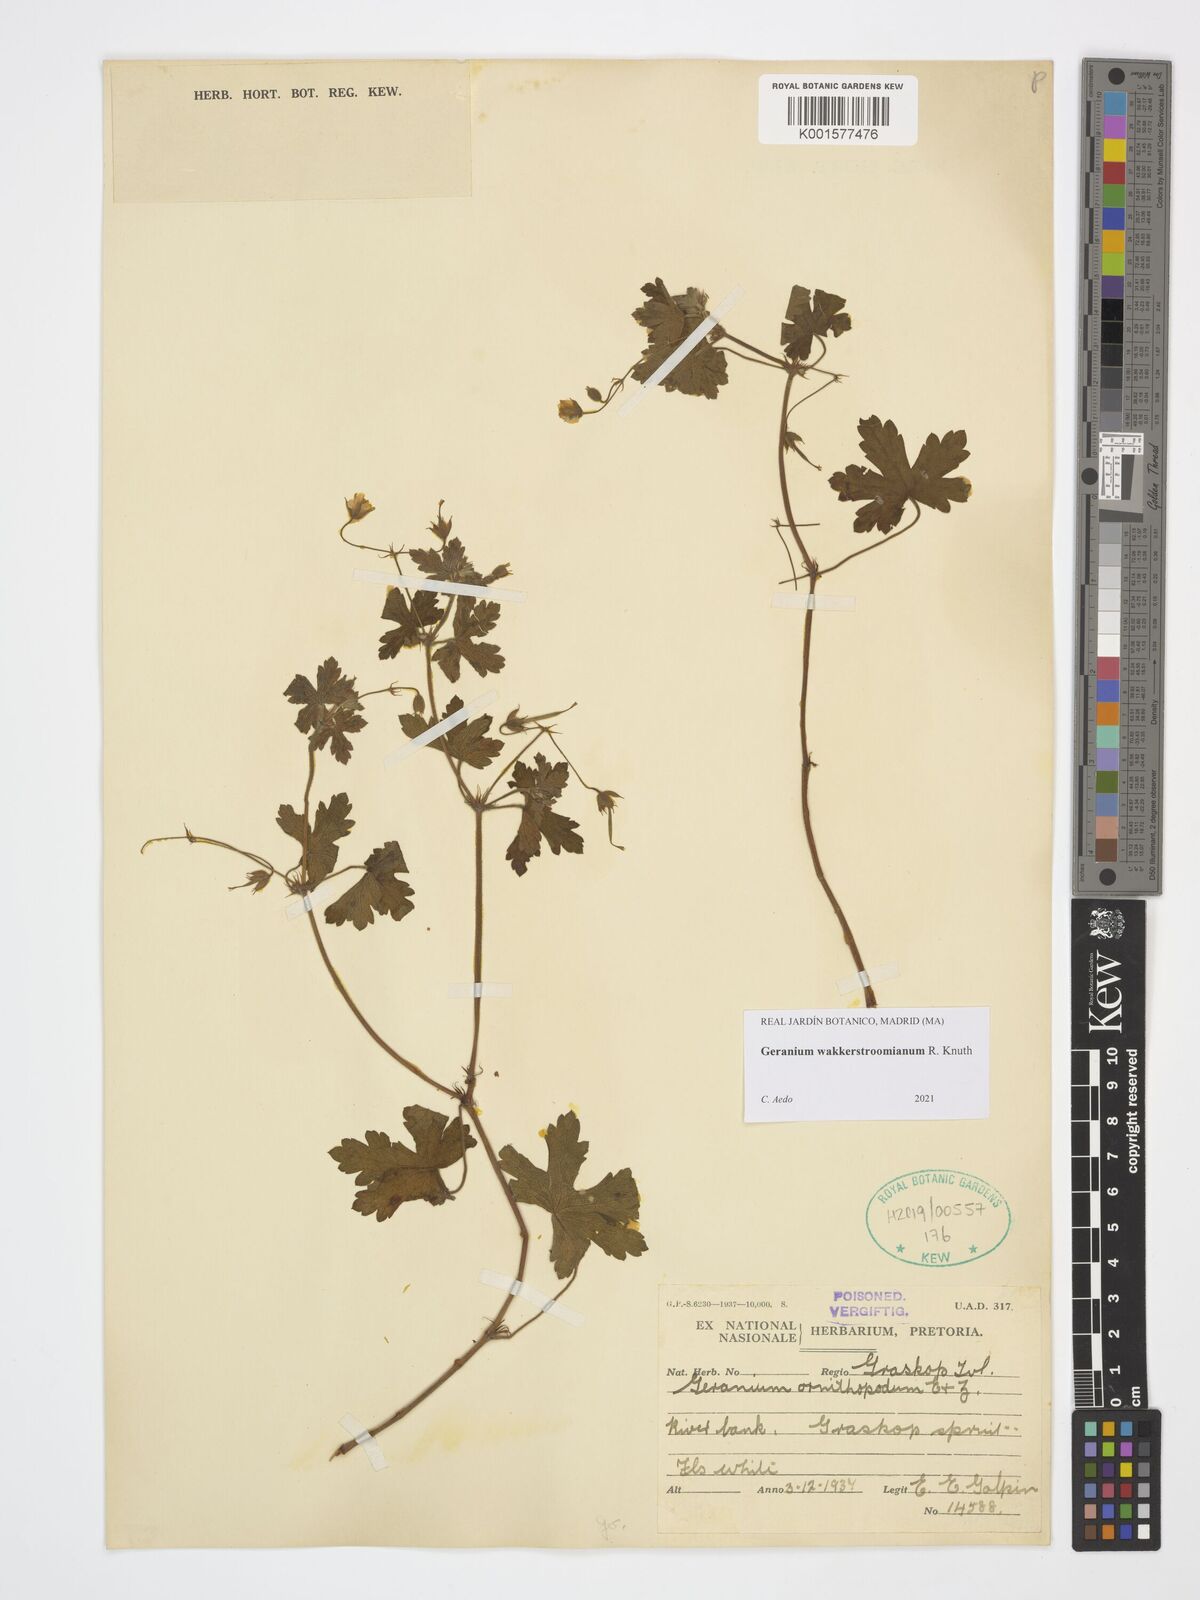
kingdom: Plantae
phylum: Tracheophyta
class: Magnoliopsida
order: Geraniales
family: Geraniaceae
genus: Geranium
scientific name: Geranium wakkerstroomianum
